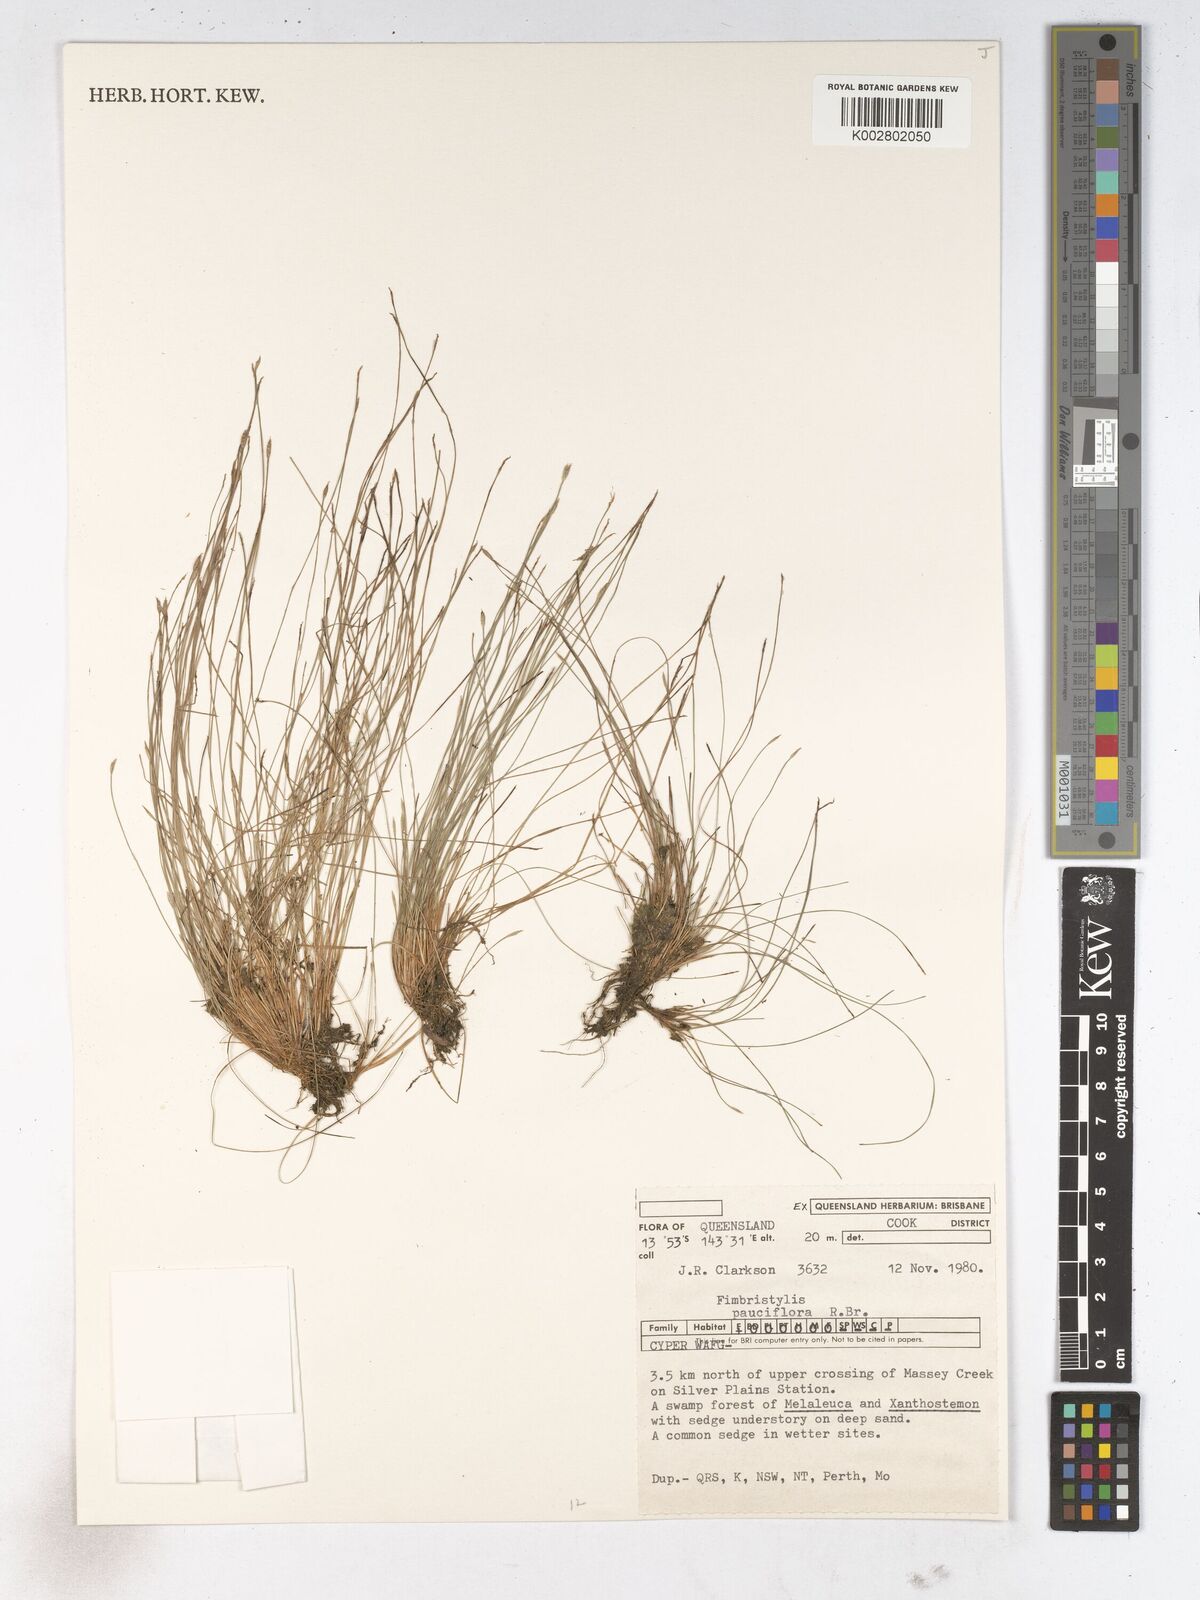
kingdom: Plantae
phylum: Tracheophyta
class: Liliopsida
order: Poales
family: Cyperaceae
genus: Fimbristylis
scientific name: Fimbristylis pauciflora
